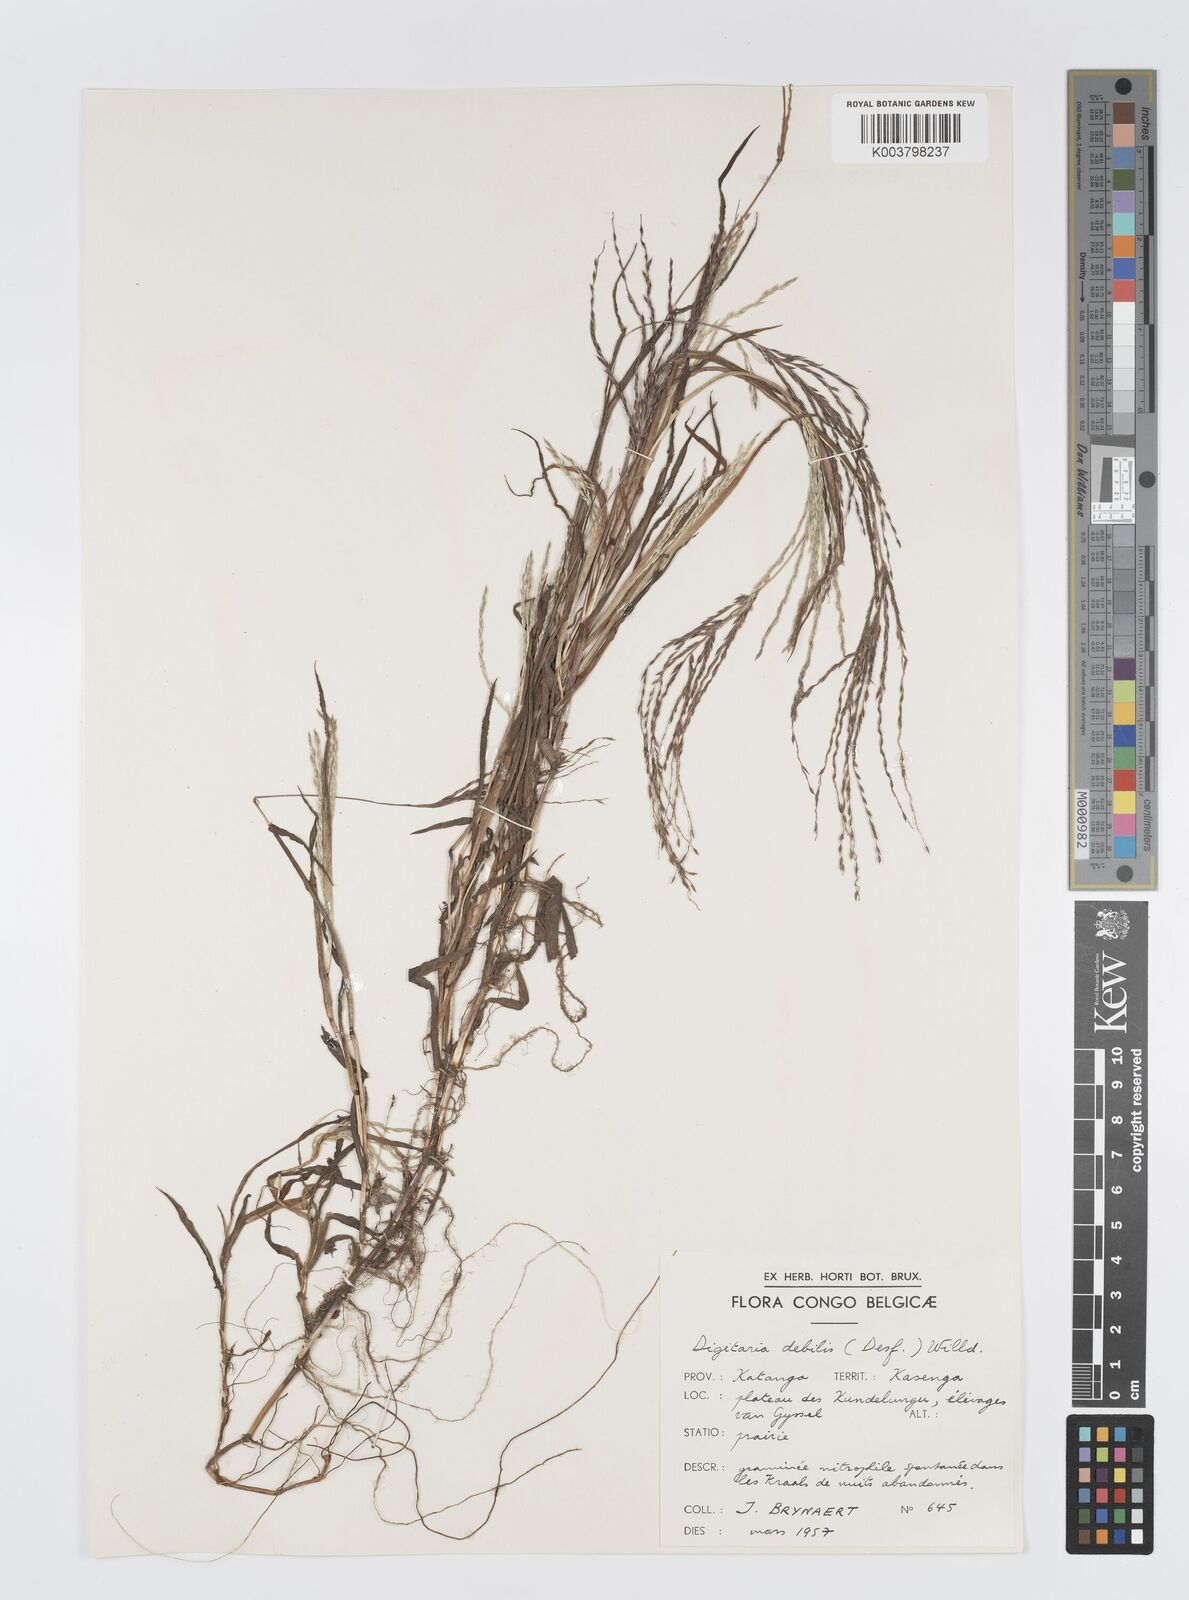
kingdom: Plantae
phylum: Tracheophyta
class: Liliopsida
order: Poales
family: Poaceae
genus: Digitaria
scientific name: Digitaria debilis
